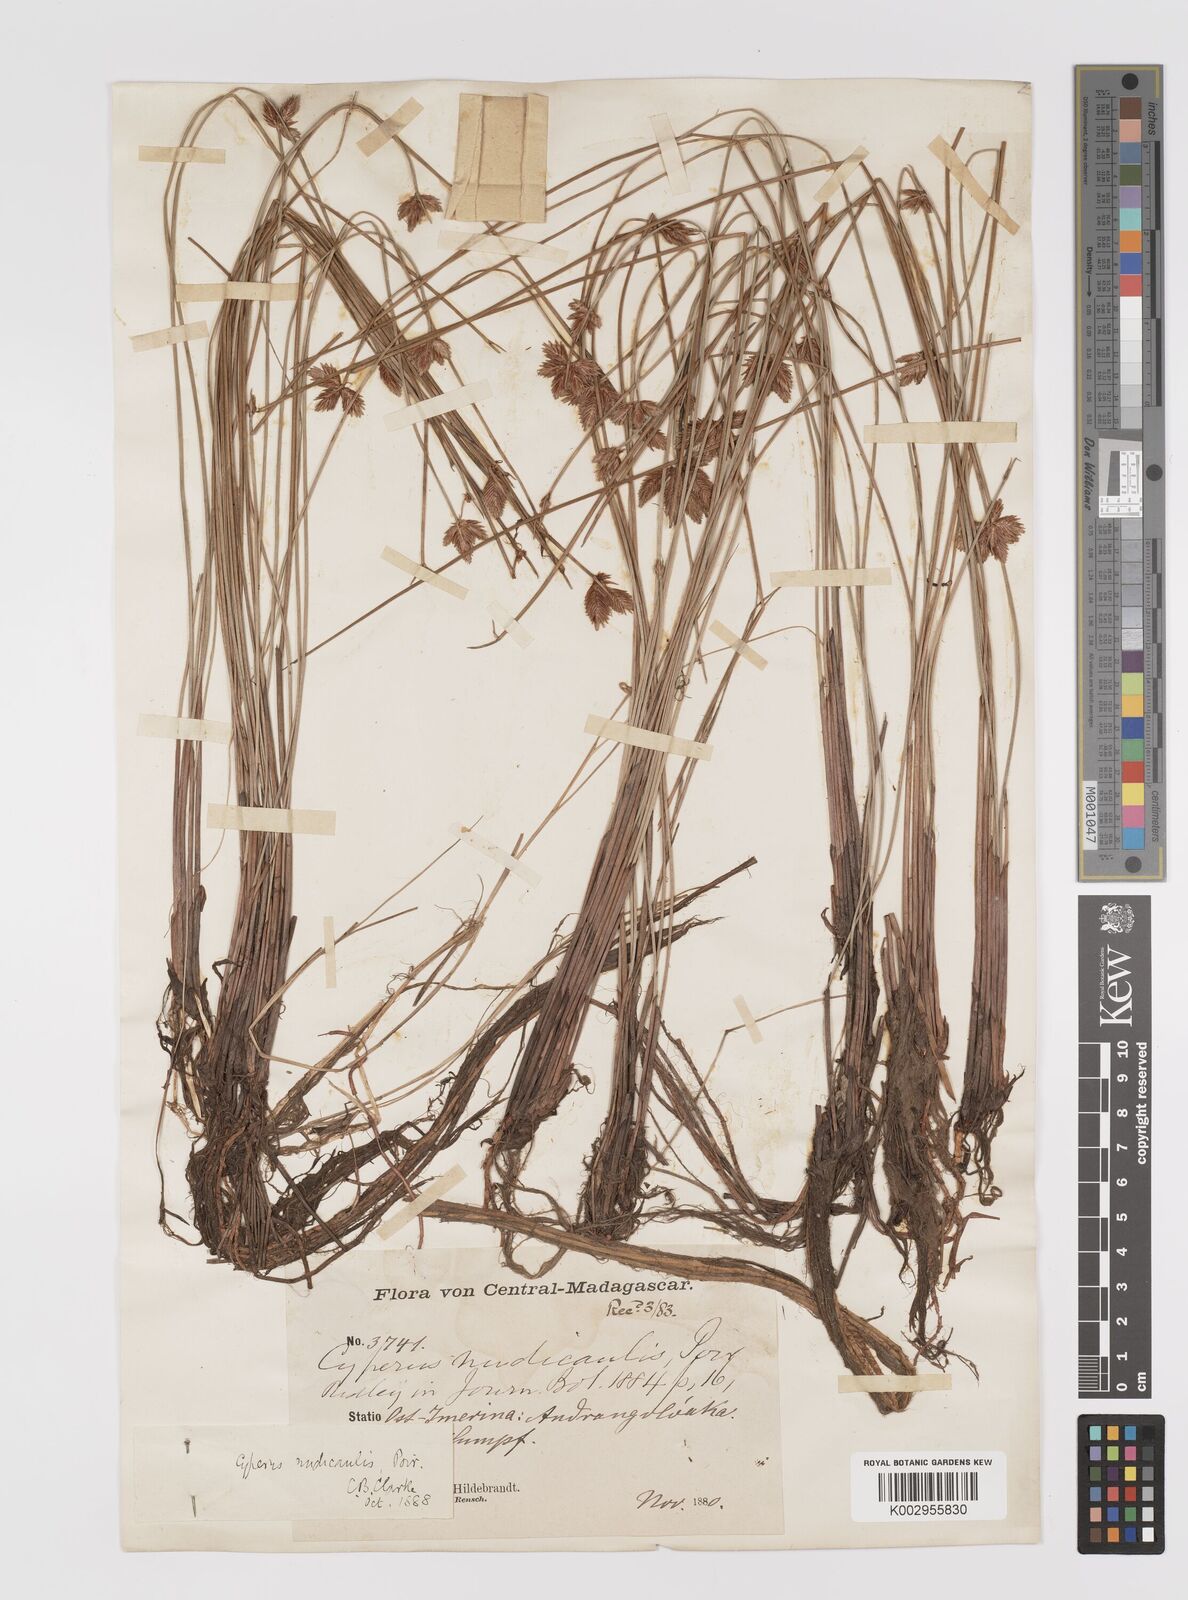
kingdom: Plantae
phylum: Tracheophyta
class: Liliopsida
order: Poales
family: Cyperaceae
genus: Cyperus
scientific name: Cyperus compressus
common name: Poorland flatsedge
